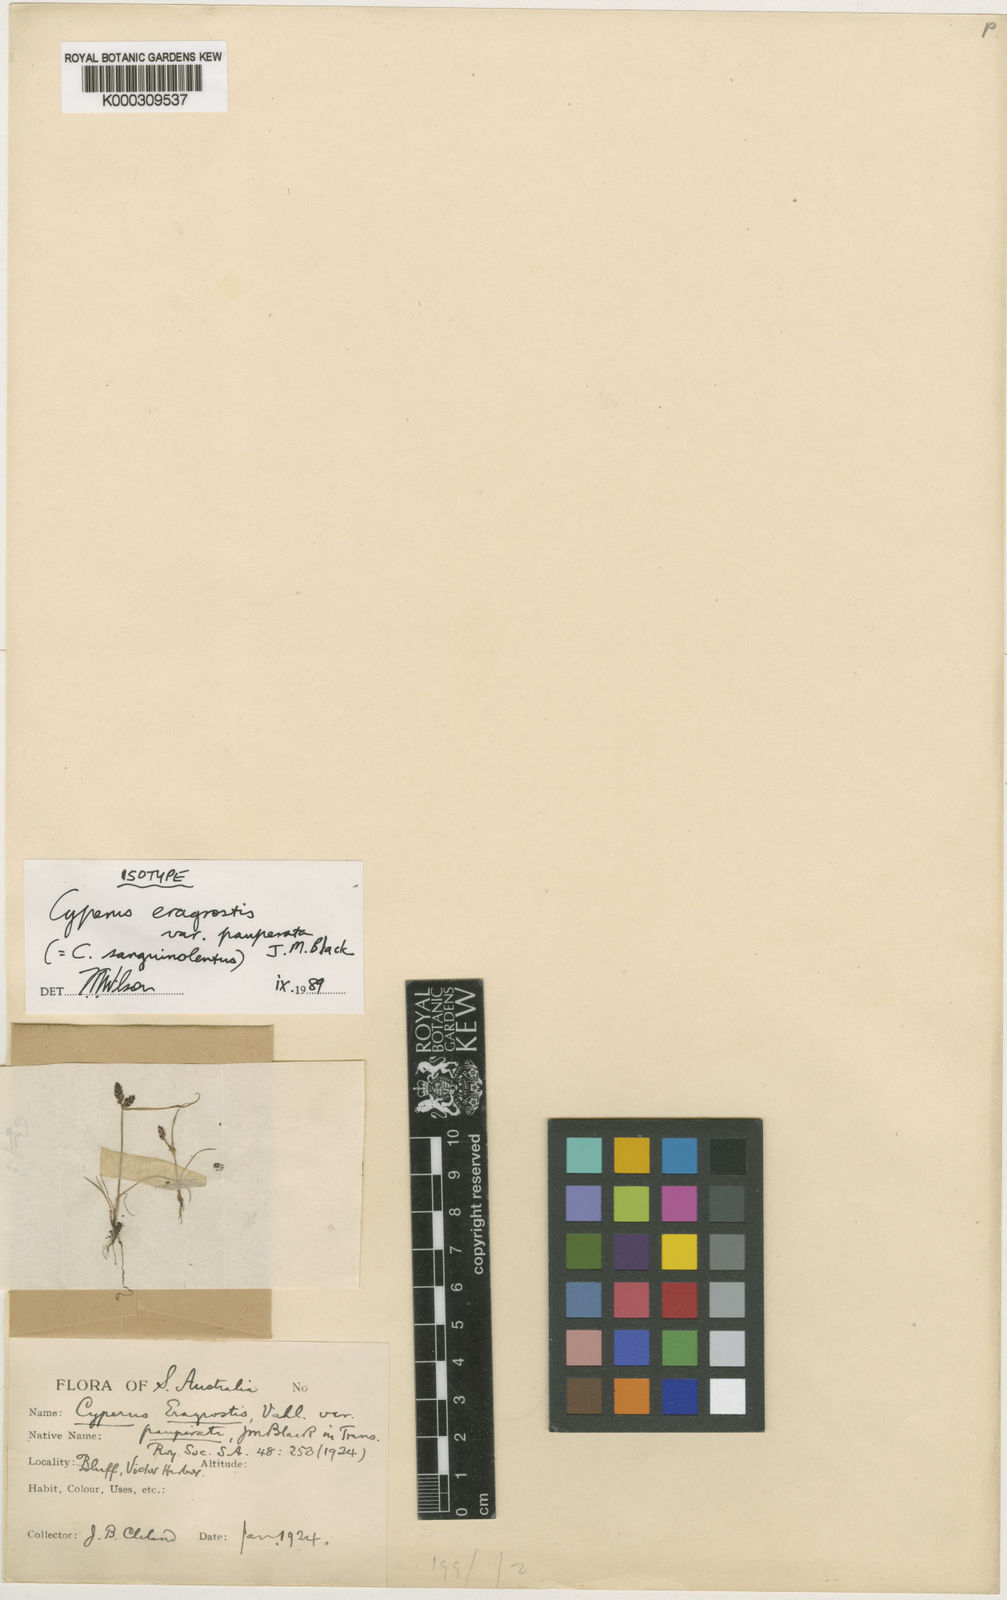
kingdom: Plantae
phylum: Tracheophyta
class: Liliopsida
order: Poales
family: Cyperaceae
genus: Cyperus
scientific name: Cyperus sanguinolentus
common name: Purpleglume flatsedge
